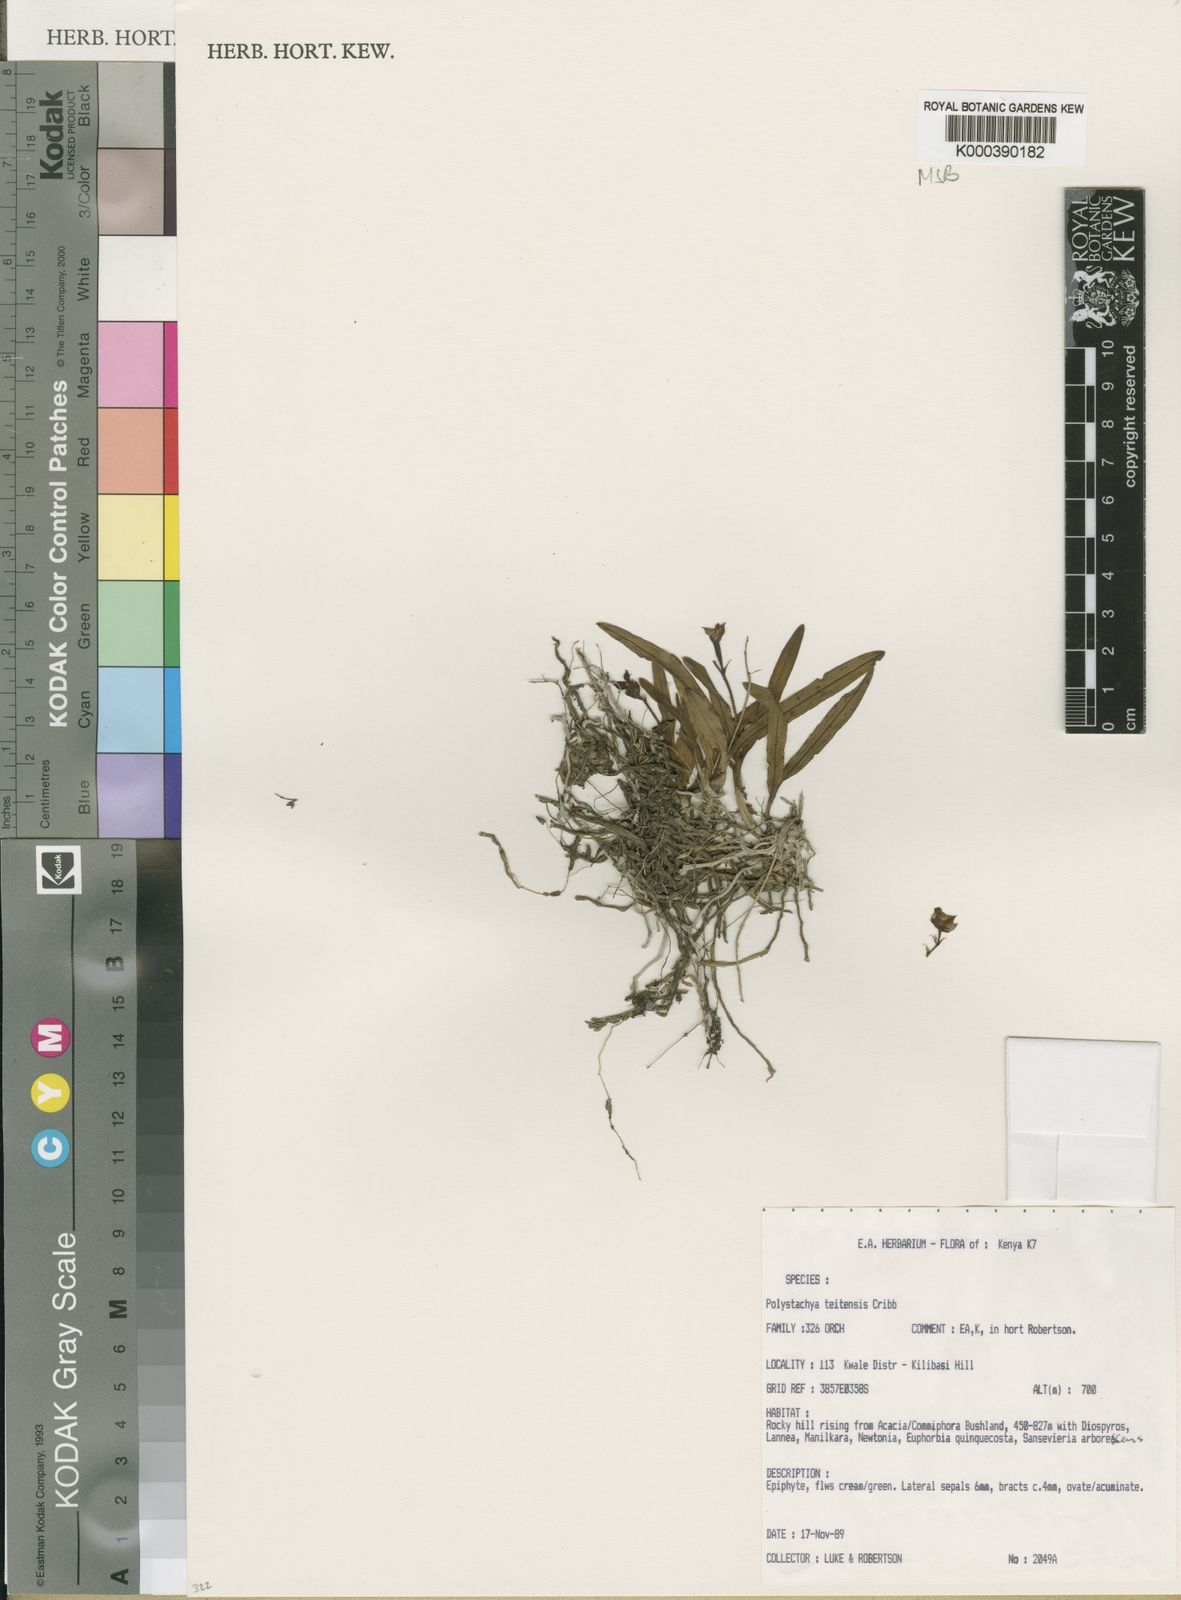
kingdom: Plantae
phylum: Tracheophyta
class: Liliopsida
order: Asparagales
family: Orchidaceae
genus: Polystachya
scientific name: Polystachya teitensis
